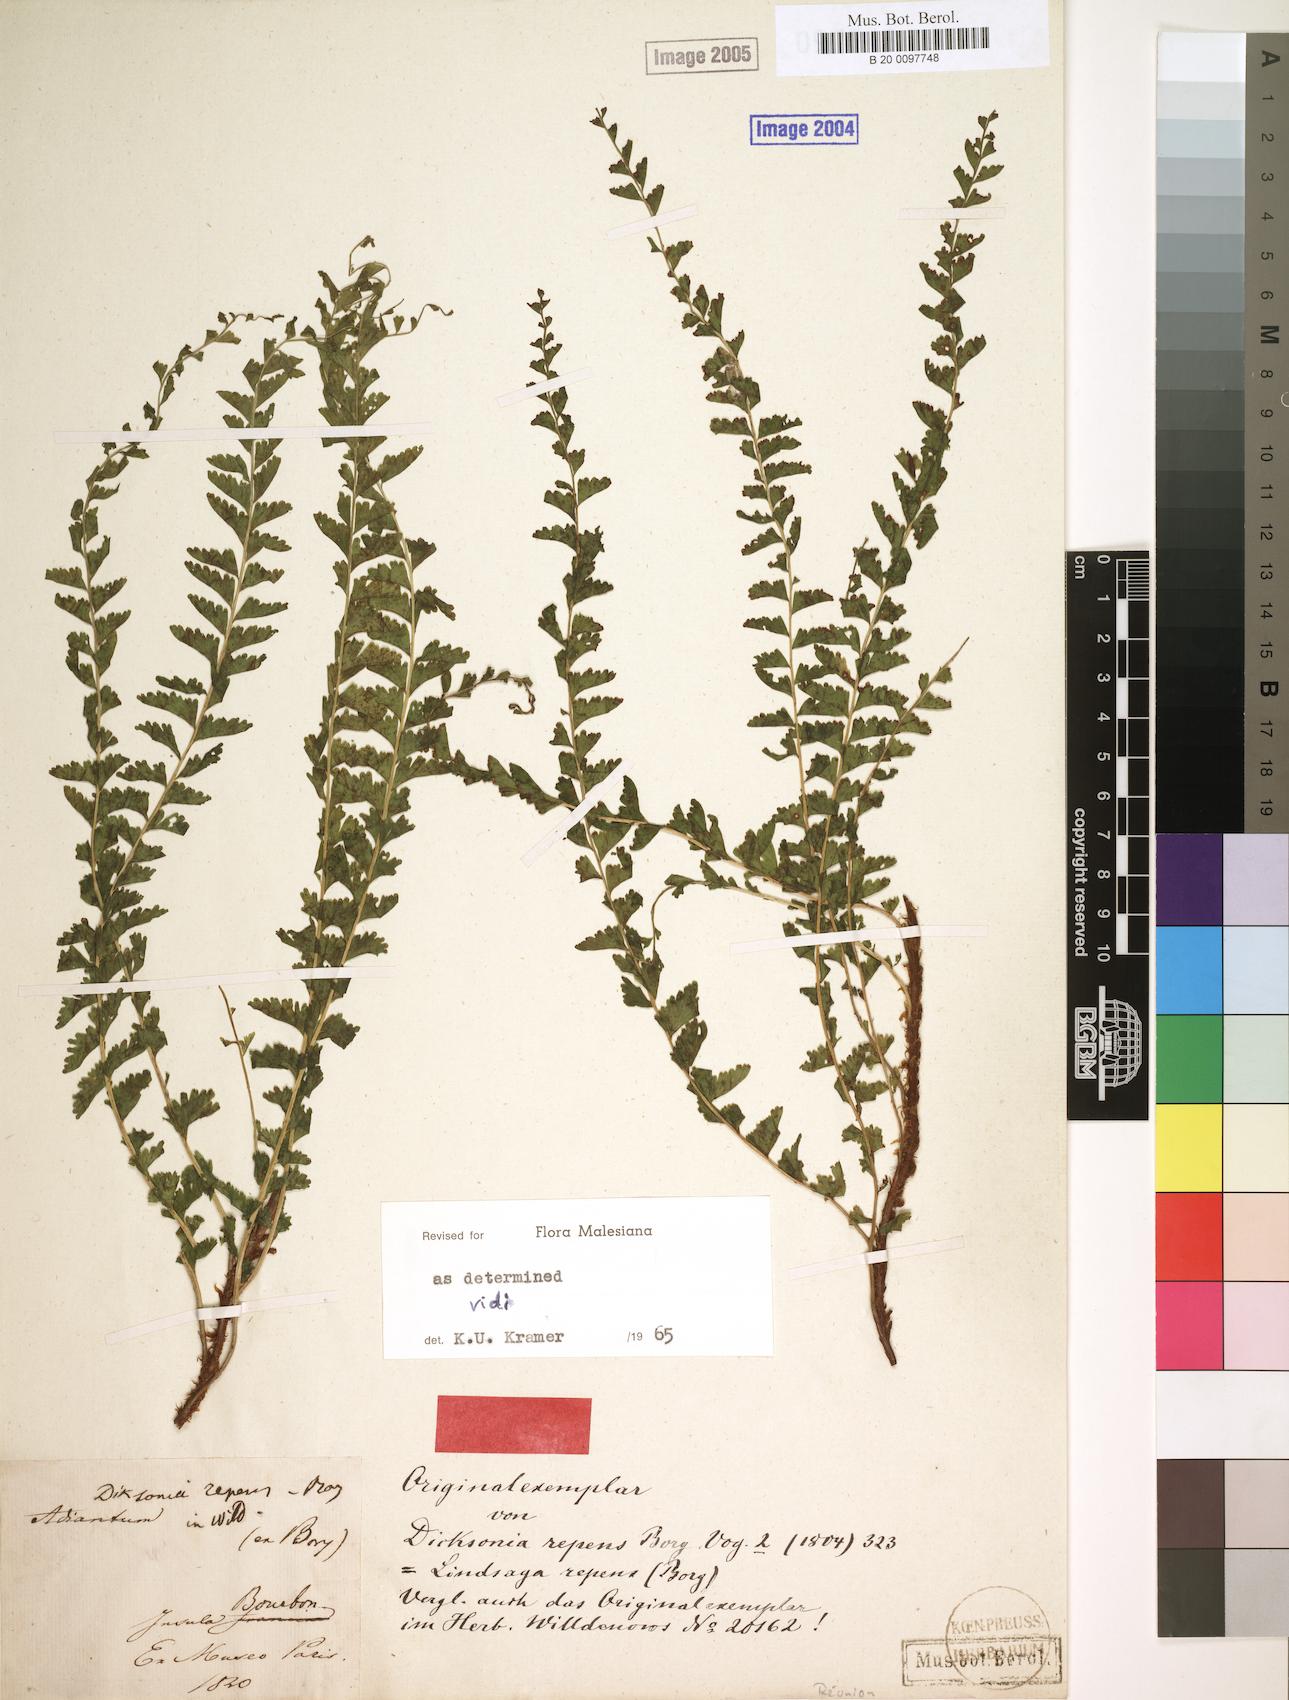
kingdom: Plantae
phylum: Tracheophyta
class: Polypodiopsida
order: Polypodiales
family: Lindsaeaceae
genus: Lindsaea
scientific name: Lindsaea repens
